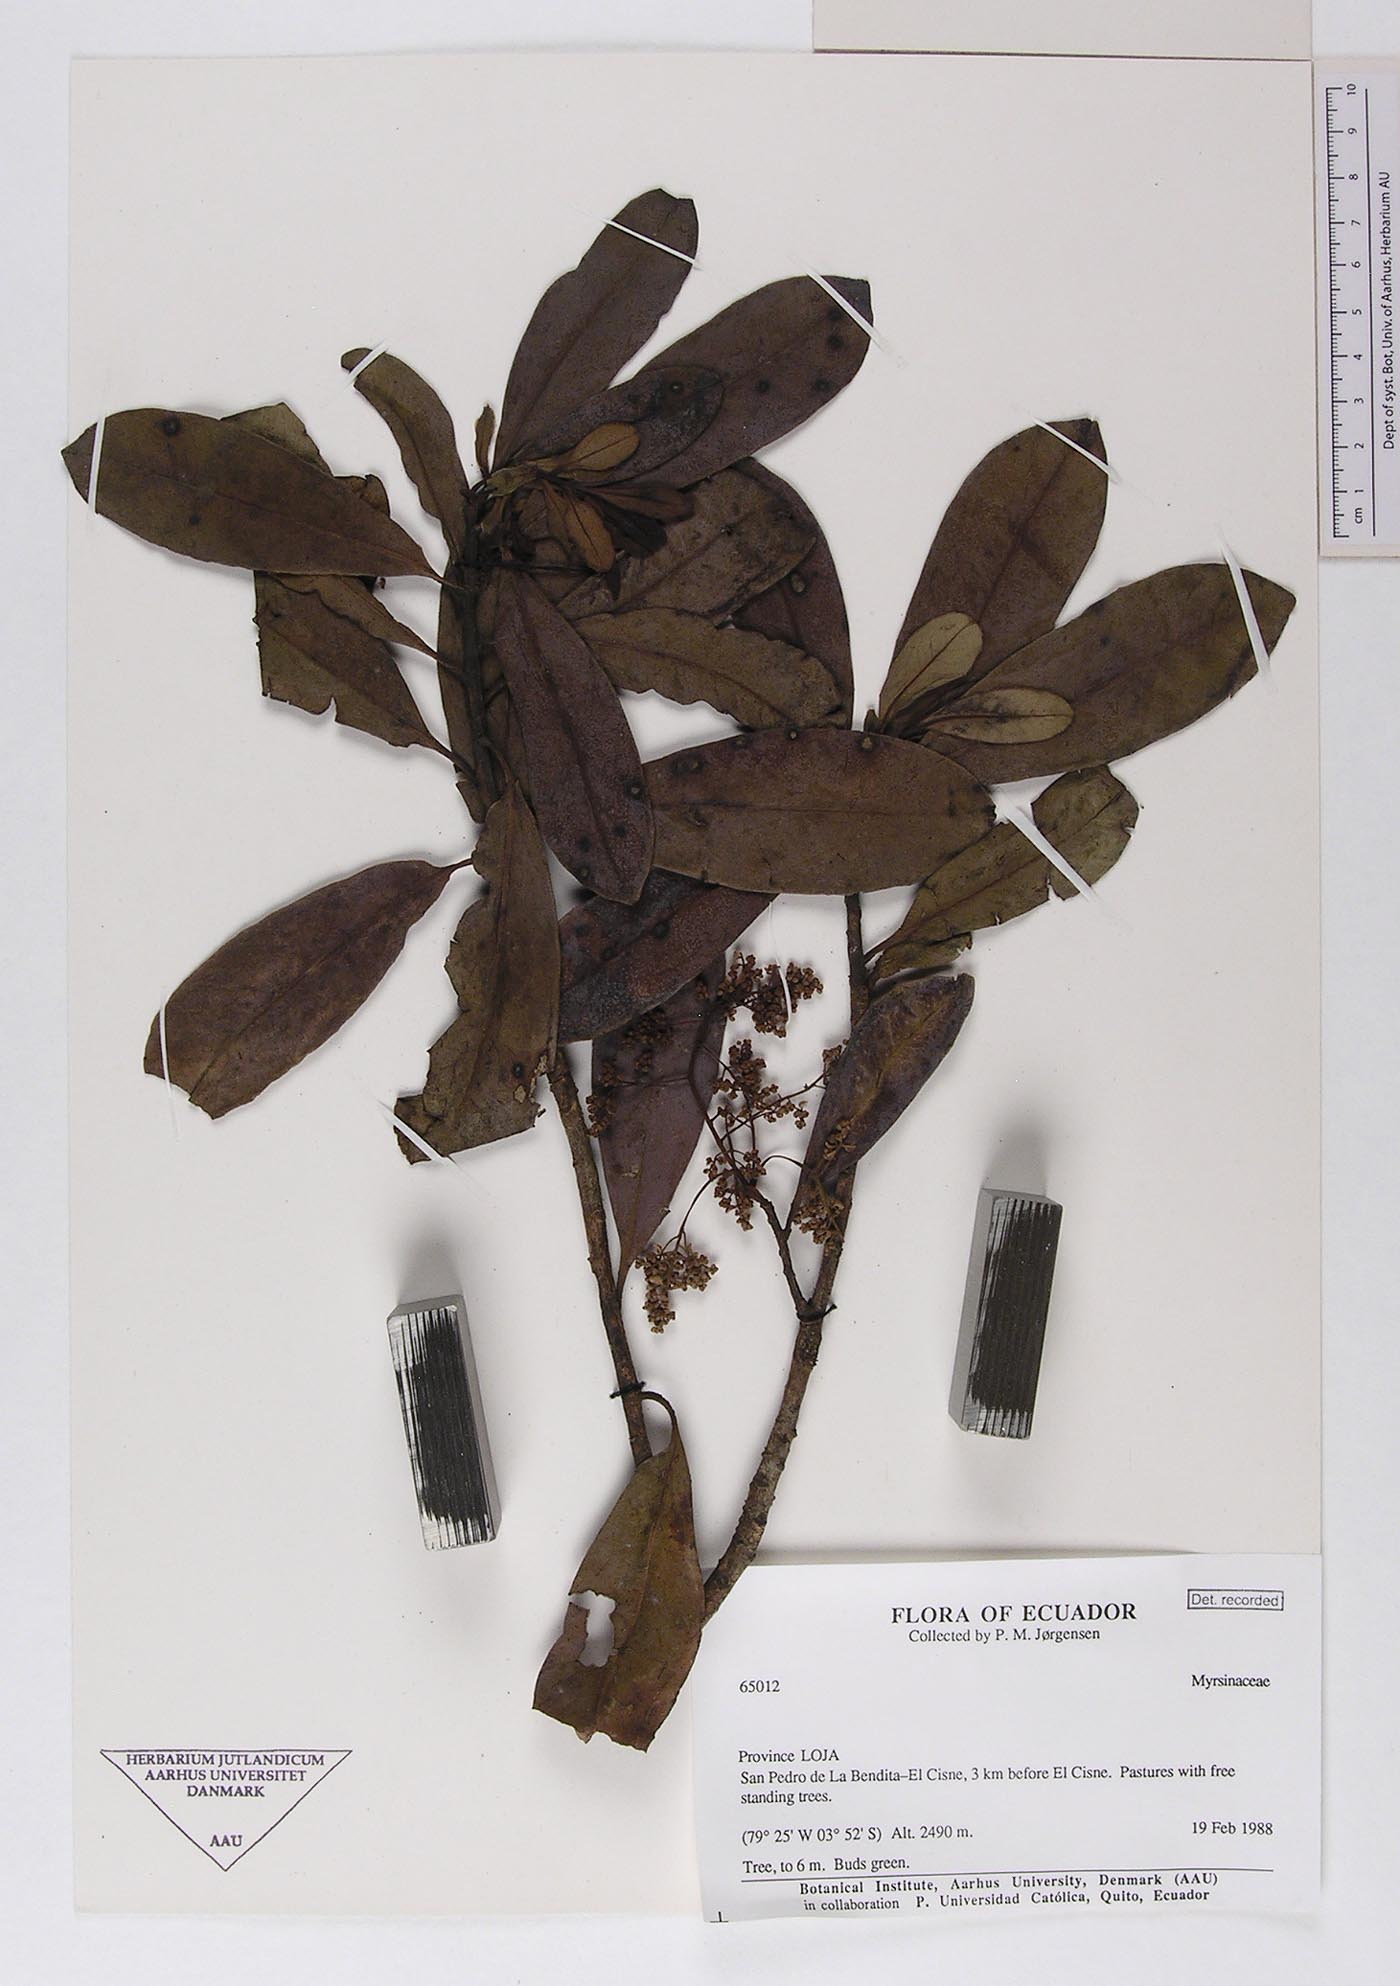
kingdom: Plantae
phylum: Tracheophyta
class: Magnoliopsida
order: Ericales
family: Primulaceae
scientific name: Primulaceae
